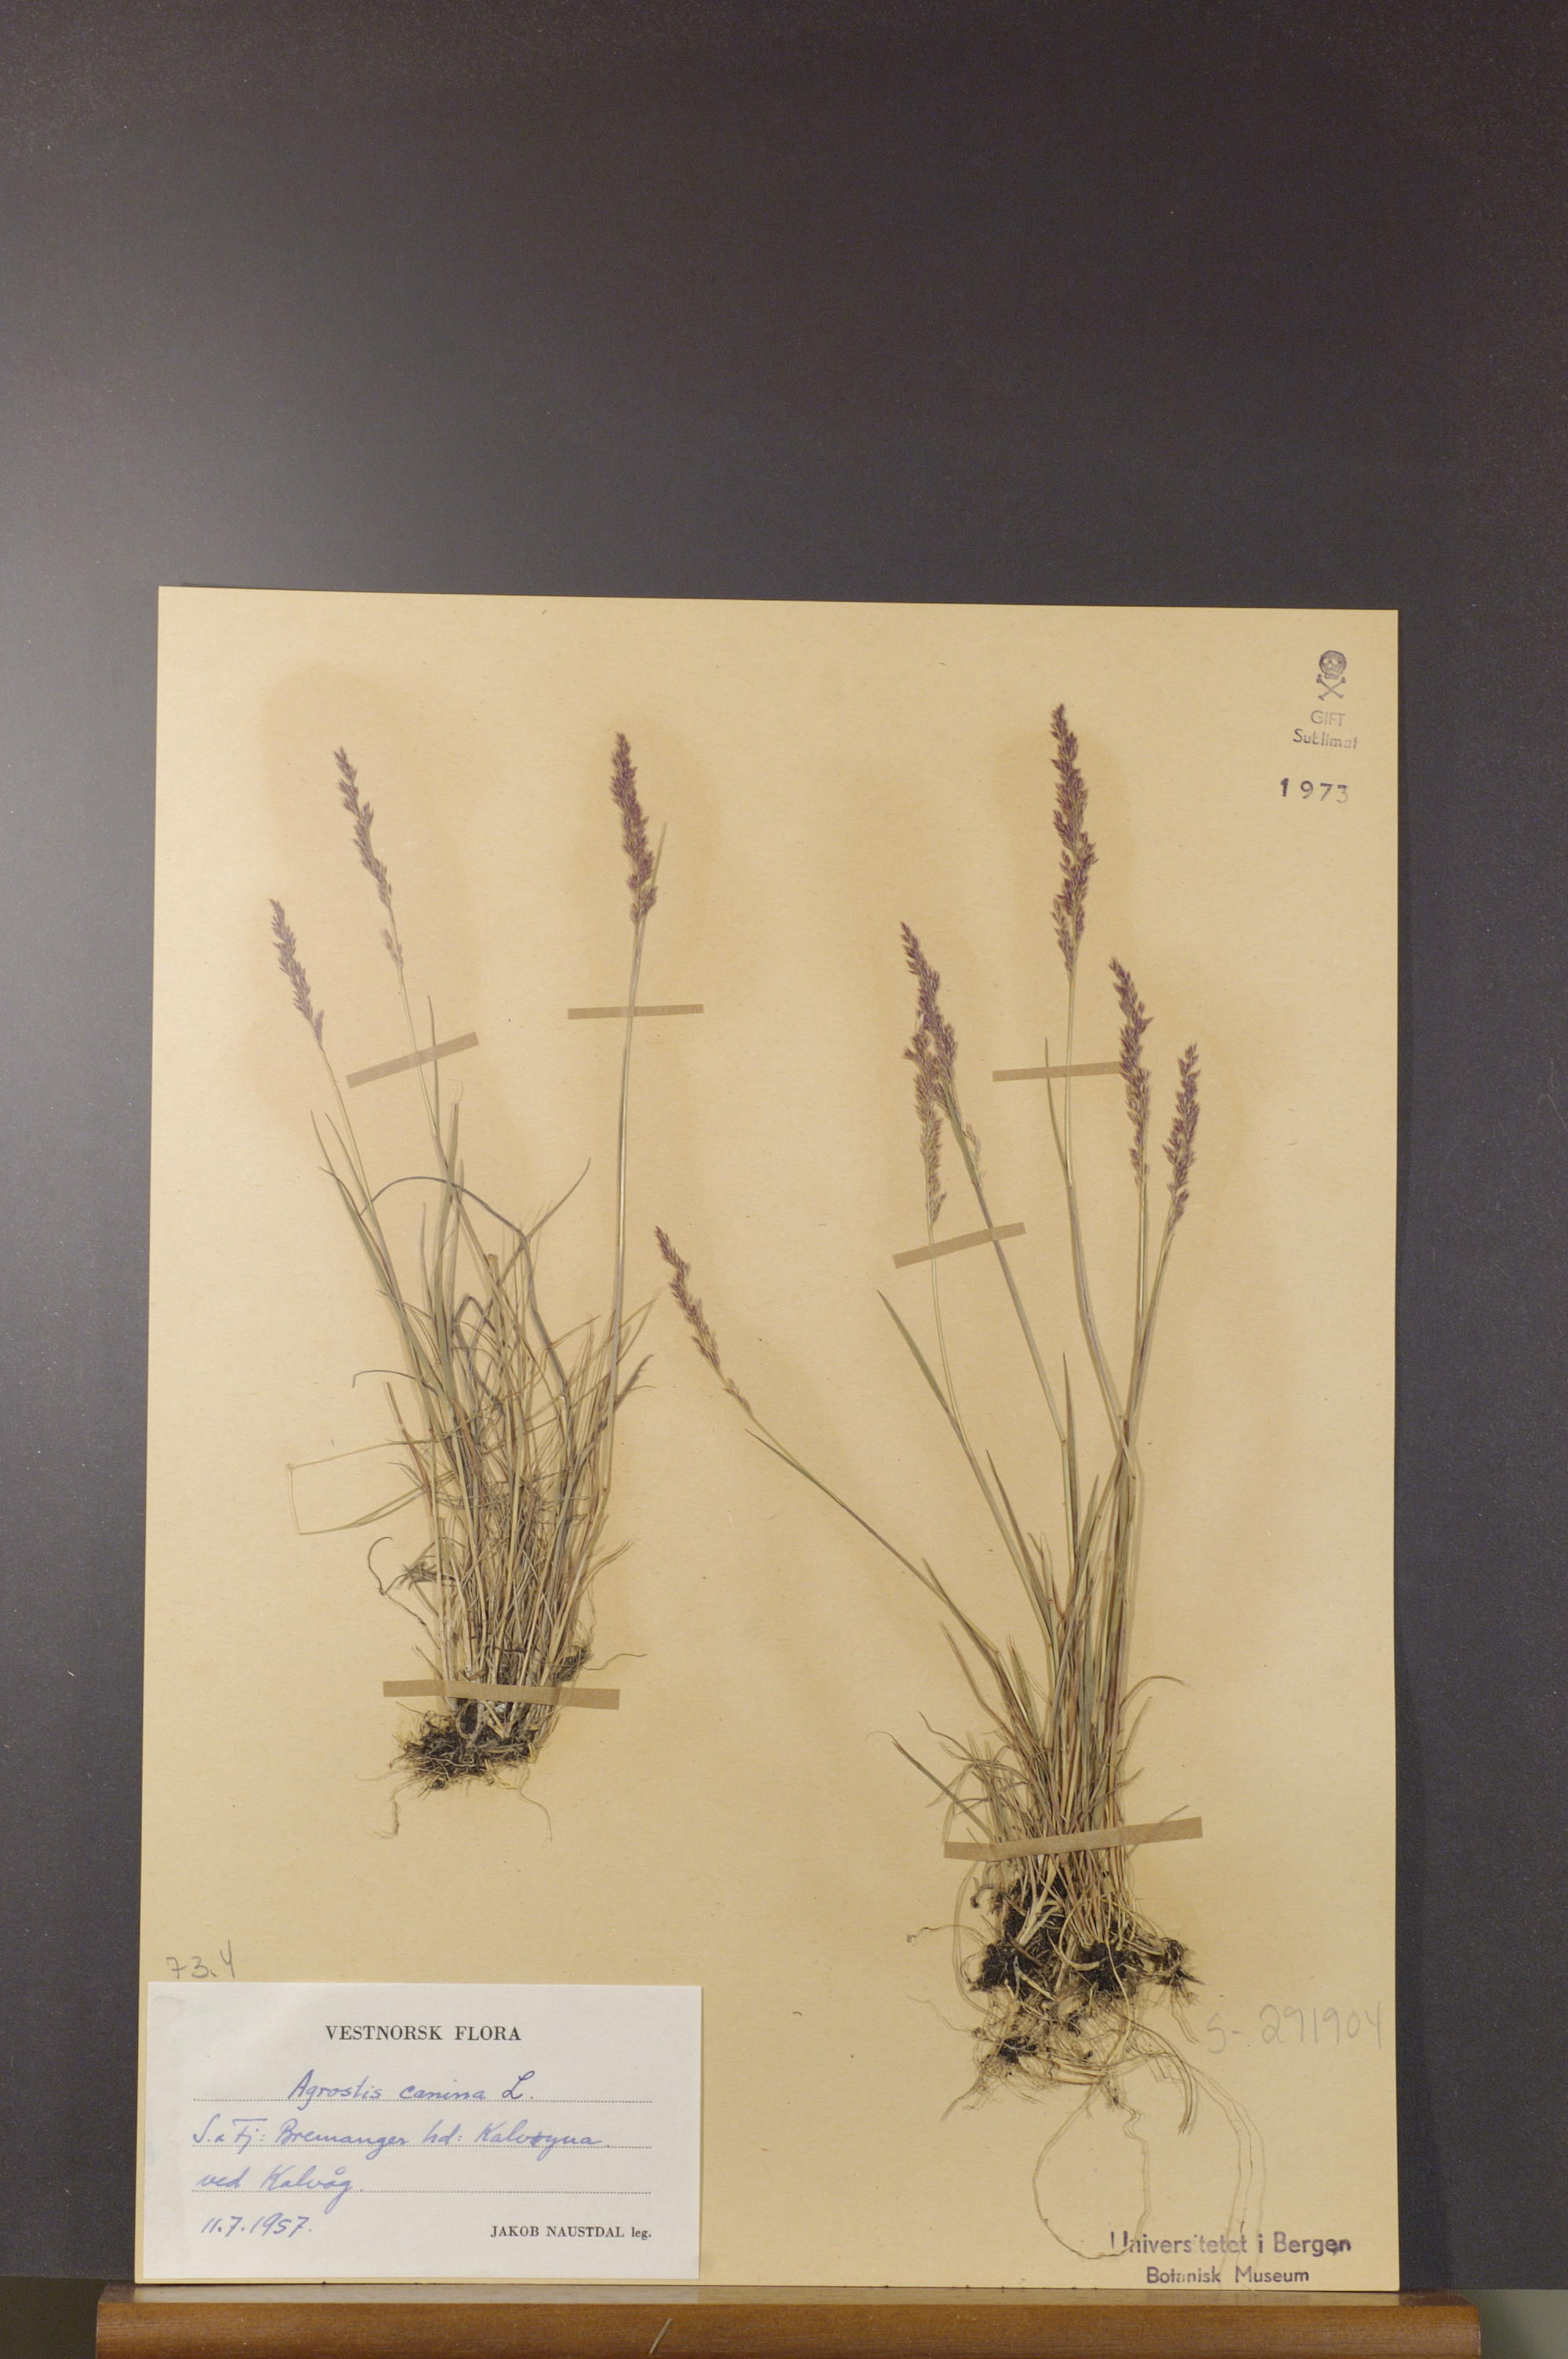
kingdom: Plantae
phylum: Tracheophyta
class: Liliopsida
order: Poales
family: Poaceae
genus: Agrostis
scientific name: Agrostis canina
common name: Velvet bent
